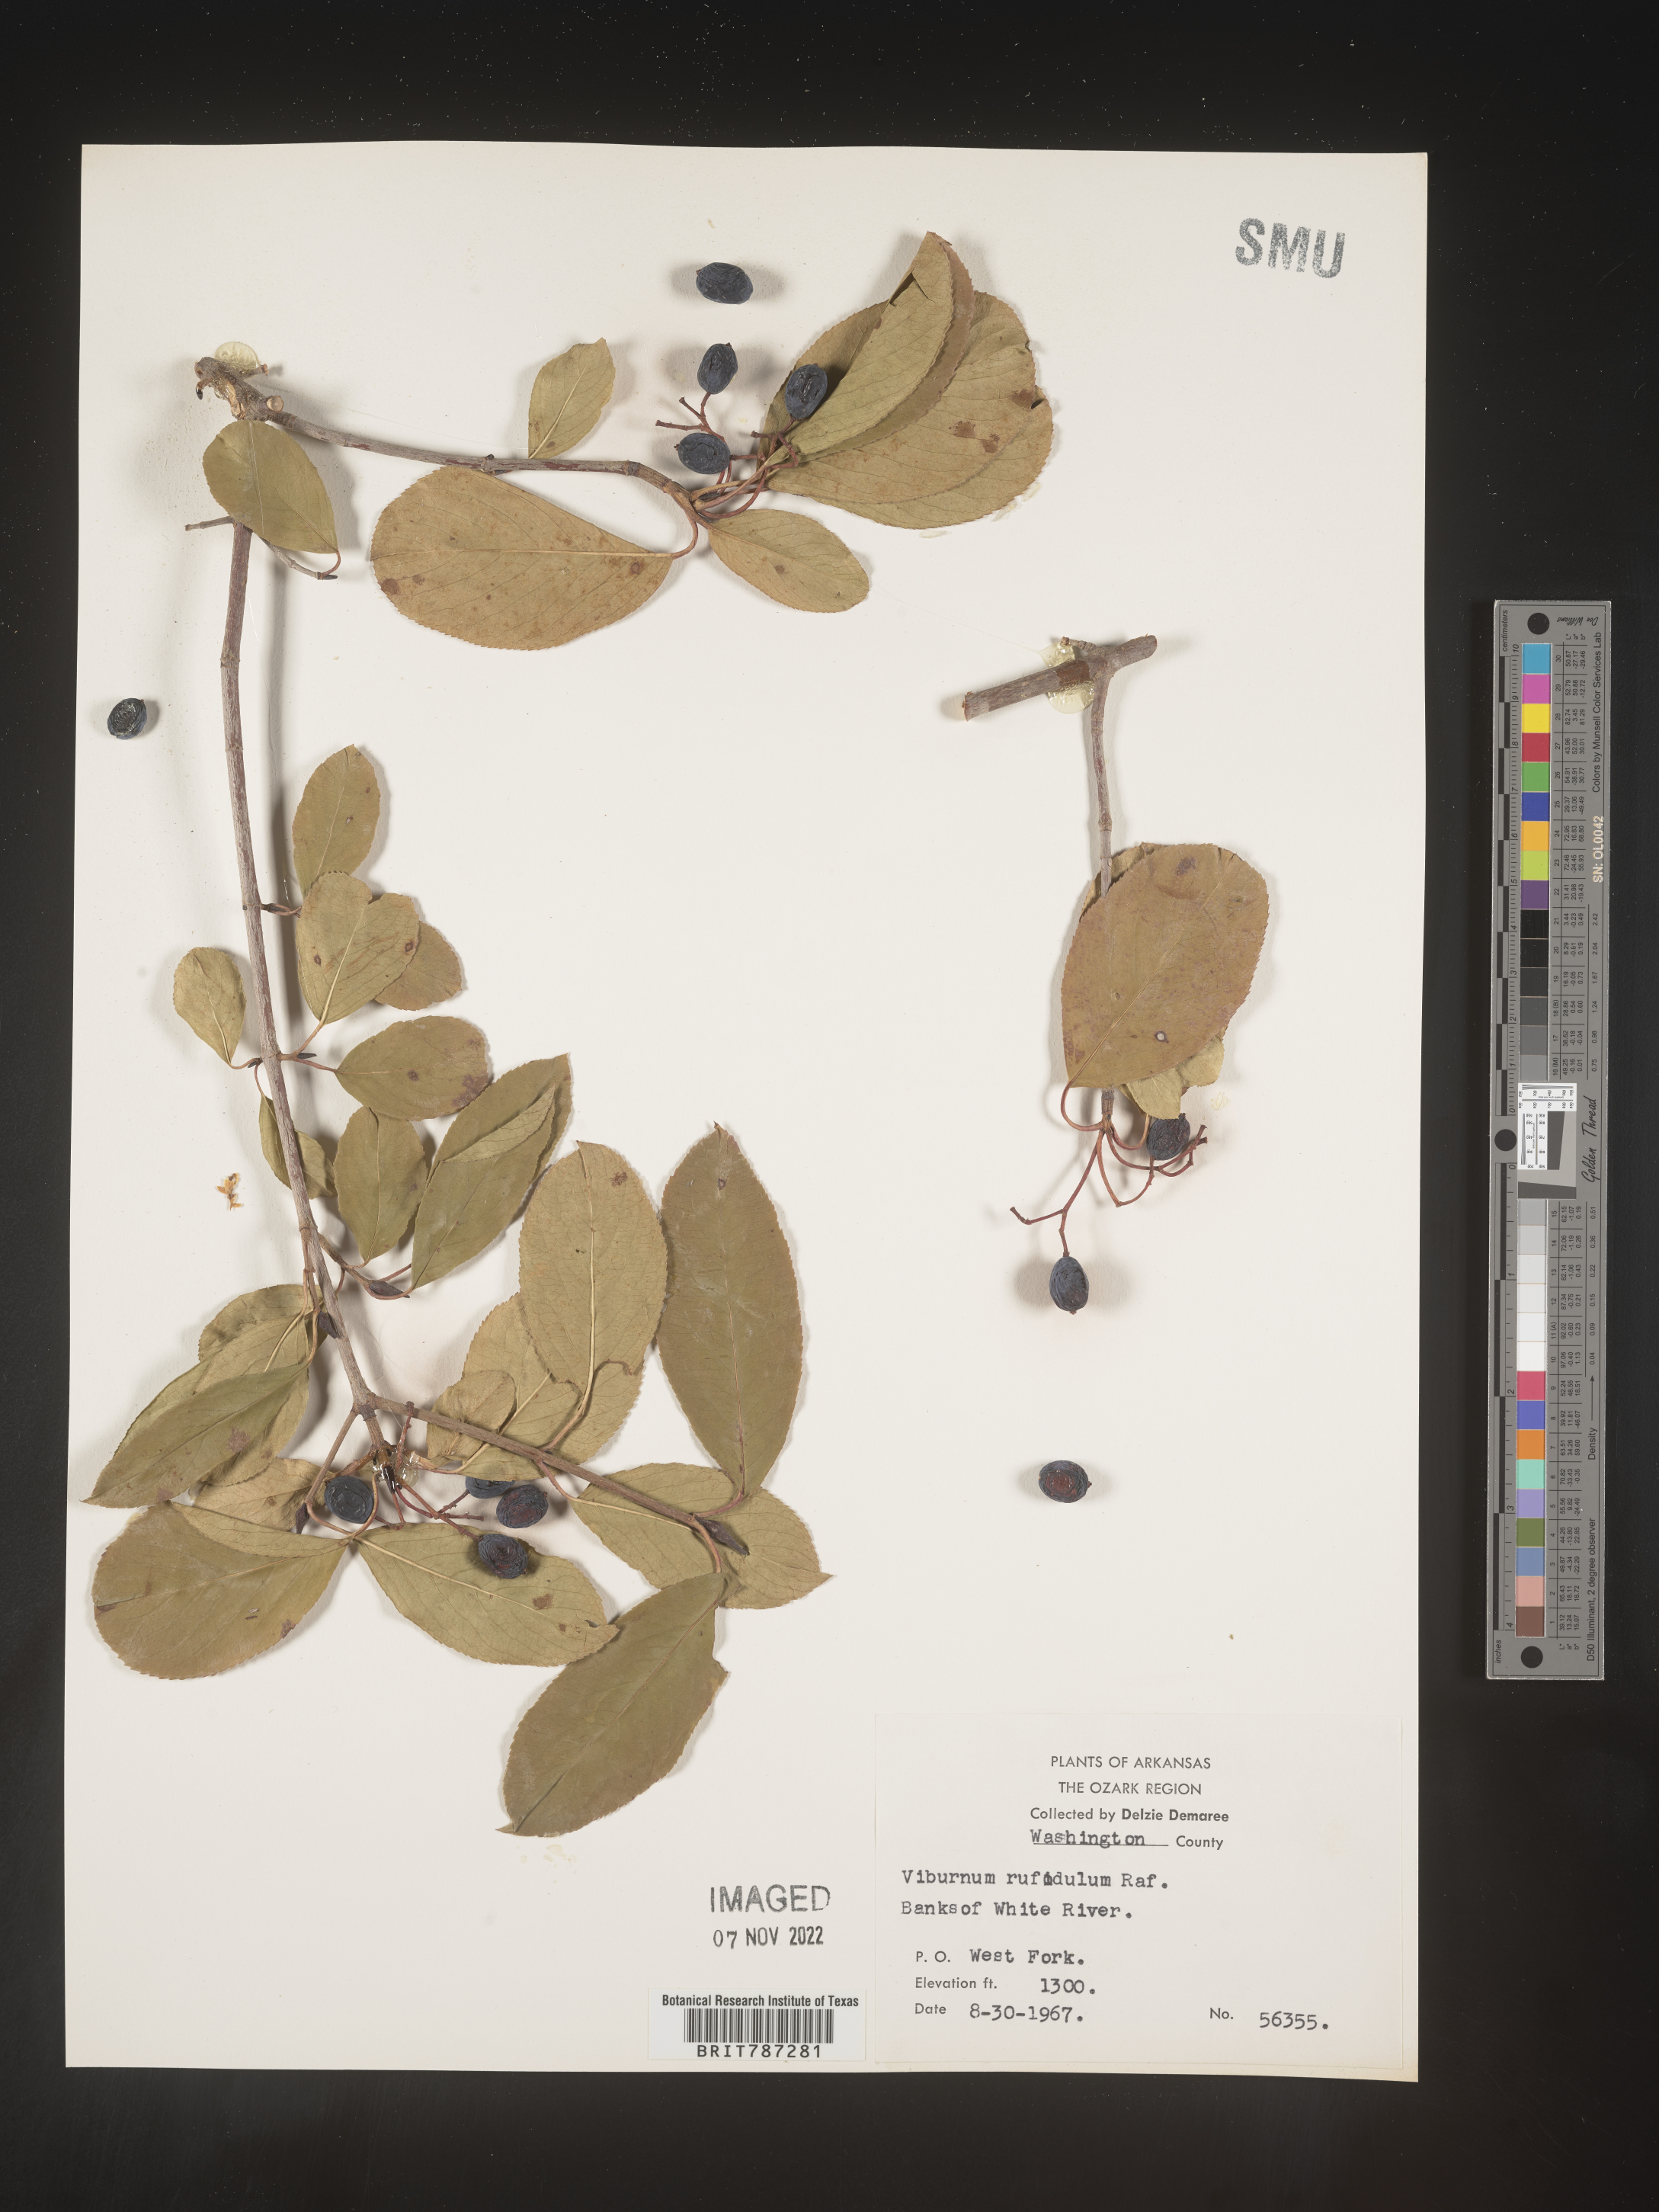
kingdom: Plantae
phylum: Tracheophyta
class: Magnoliopsida
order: Dipsacales
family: Viburnaceae
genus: Viburnum
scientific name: Viburnum rufidulum
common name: Blue haw
